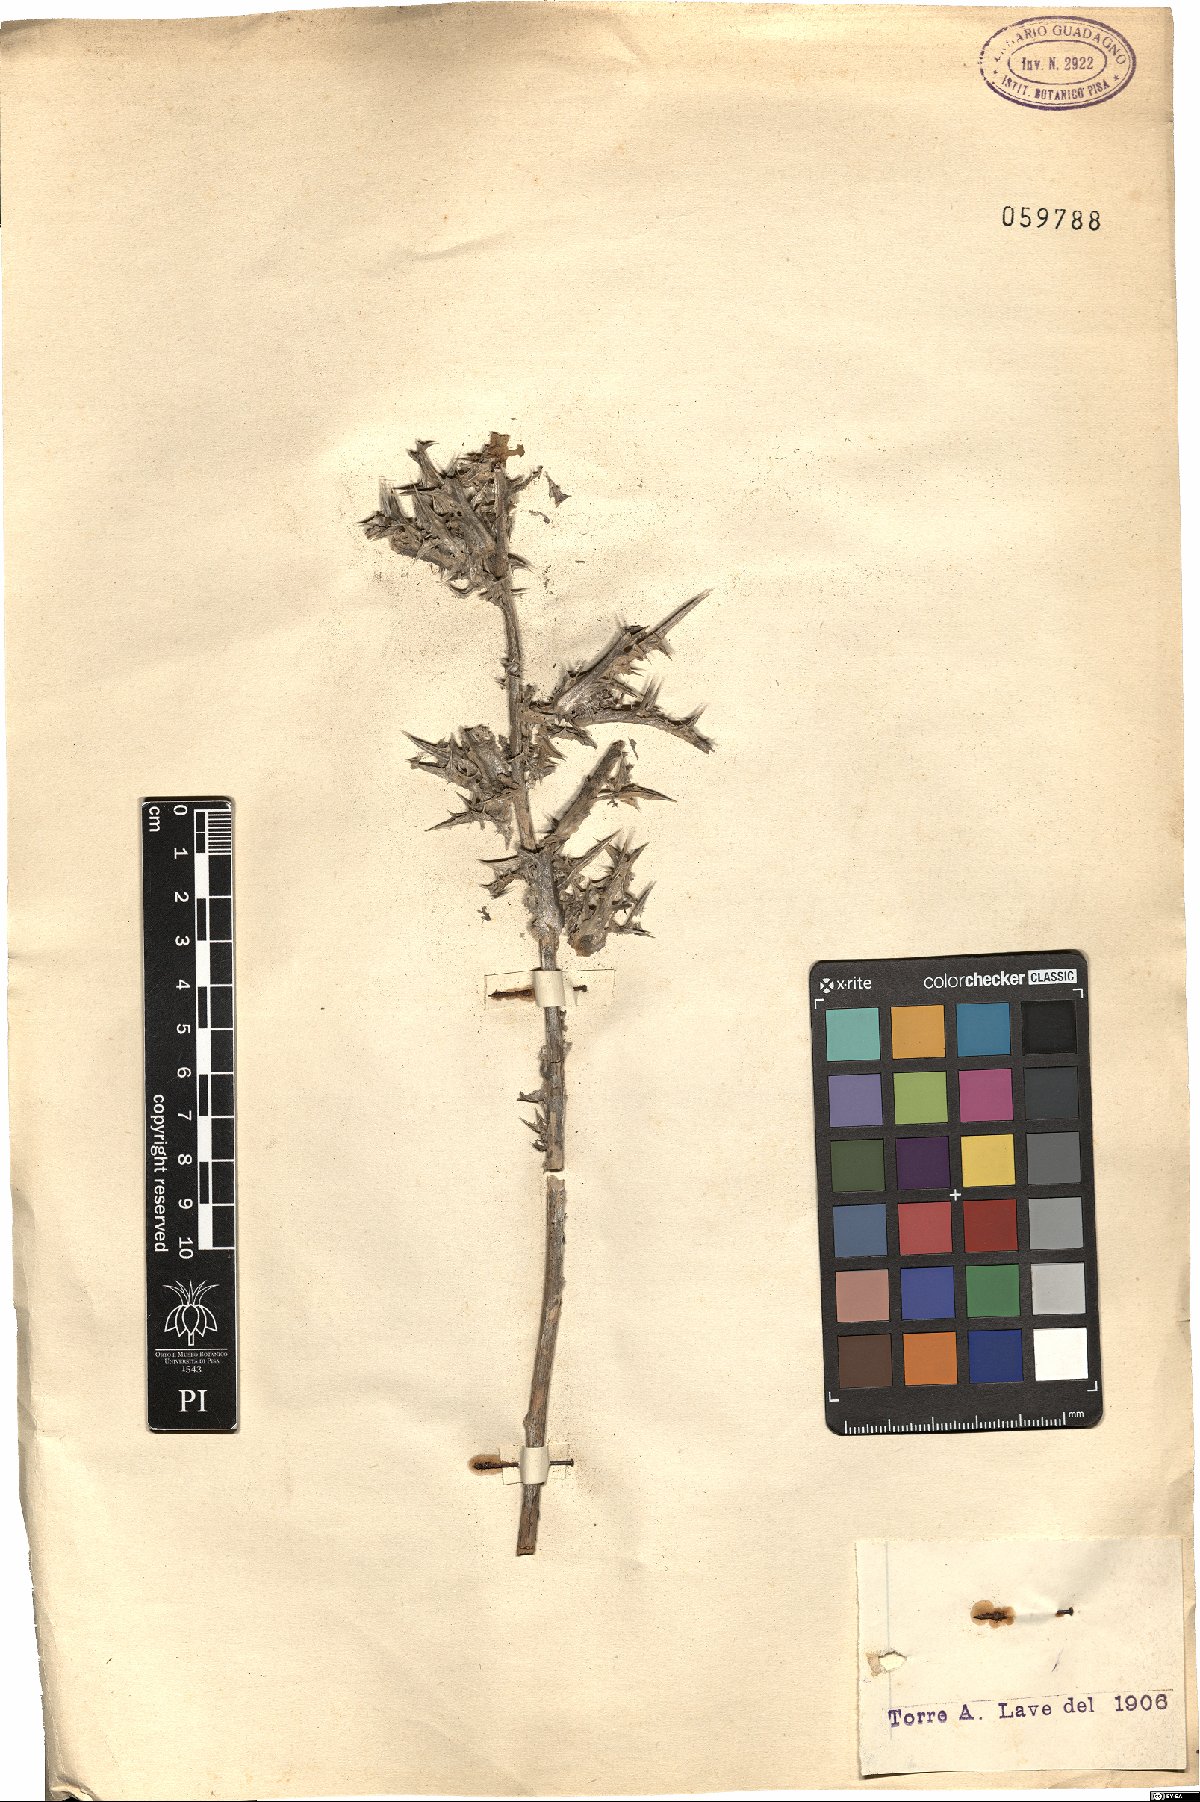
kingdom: Plantae
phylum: Tracheophyta
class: Magnoliopsida
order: Asterales
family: Asteraceae
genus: Carlina
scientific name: Carlina
